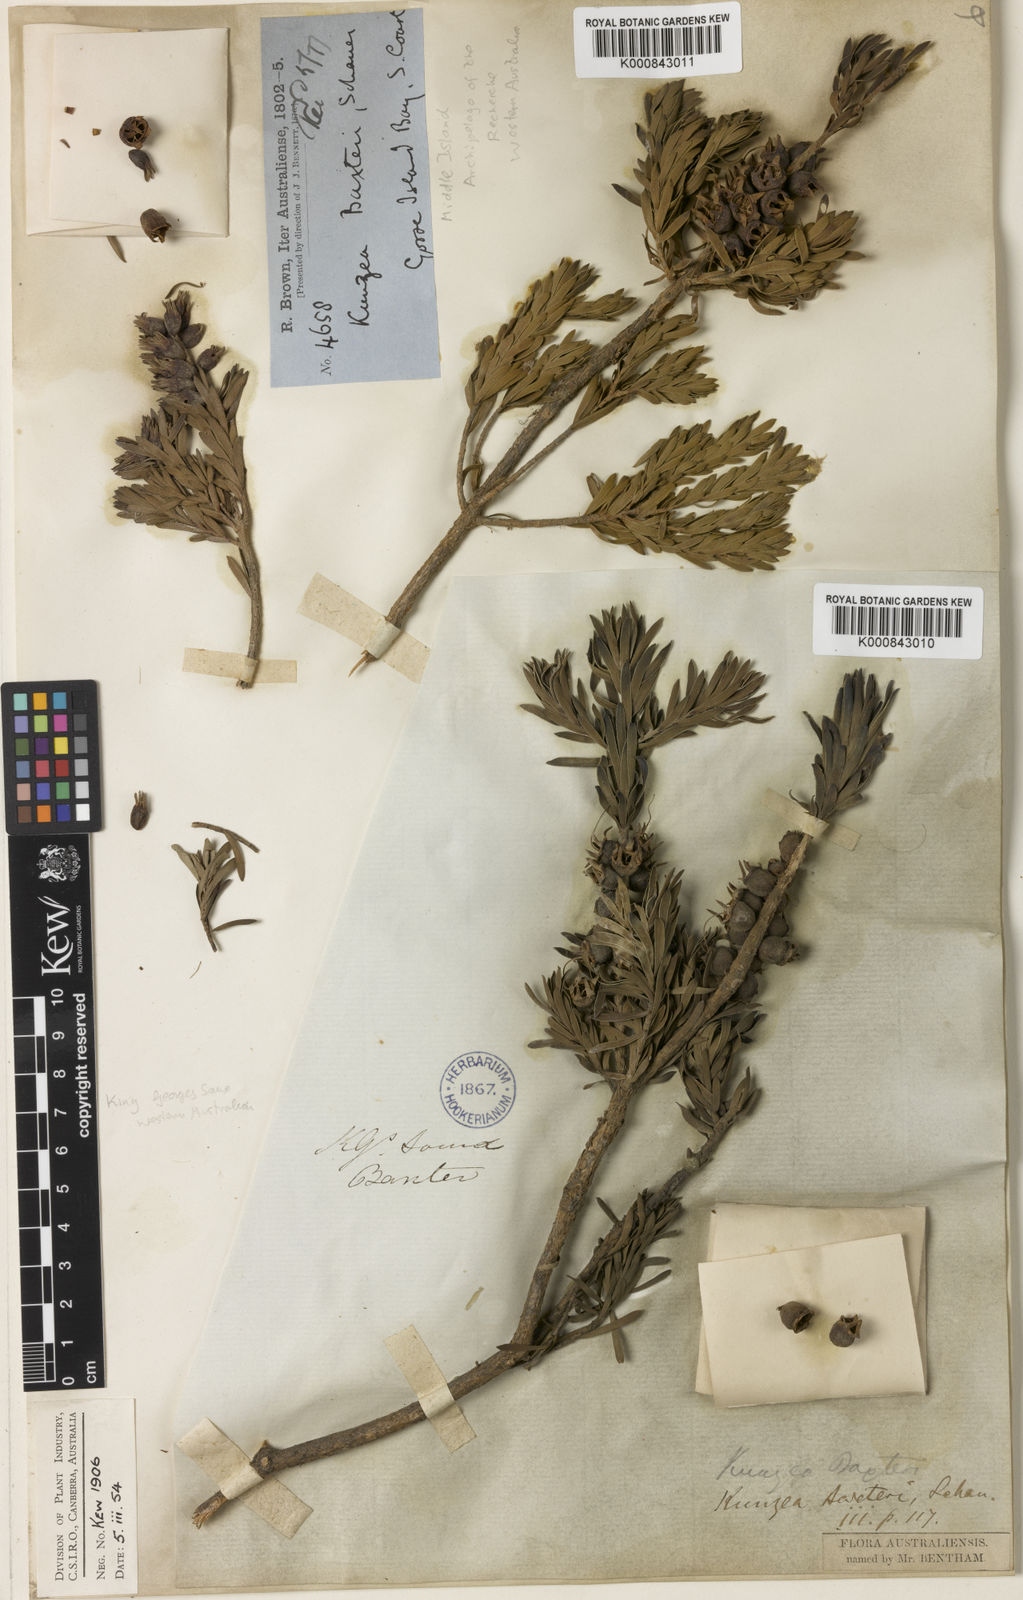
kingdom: Plantae
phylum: Tracheophyta
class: Magnoliopsida
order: Myrtales
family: Myrtaceae
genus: Kunzea
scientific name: Kunzea baxteri
